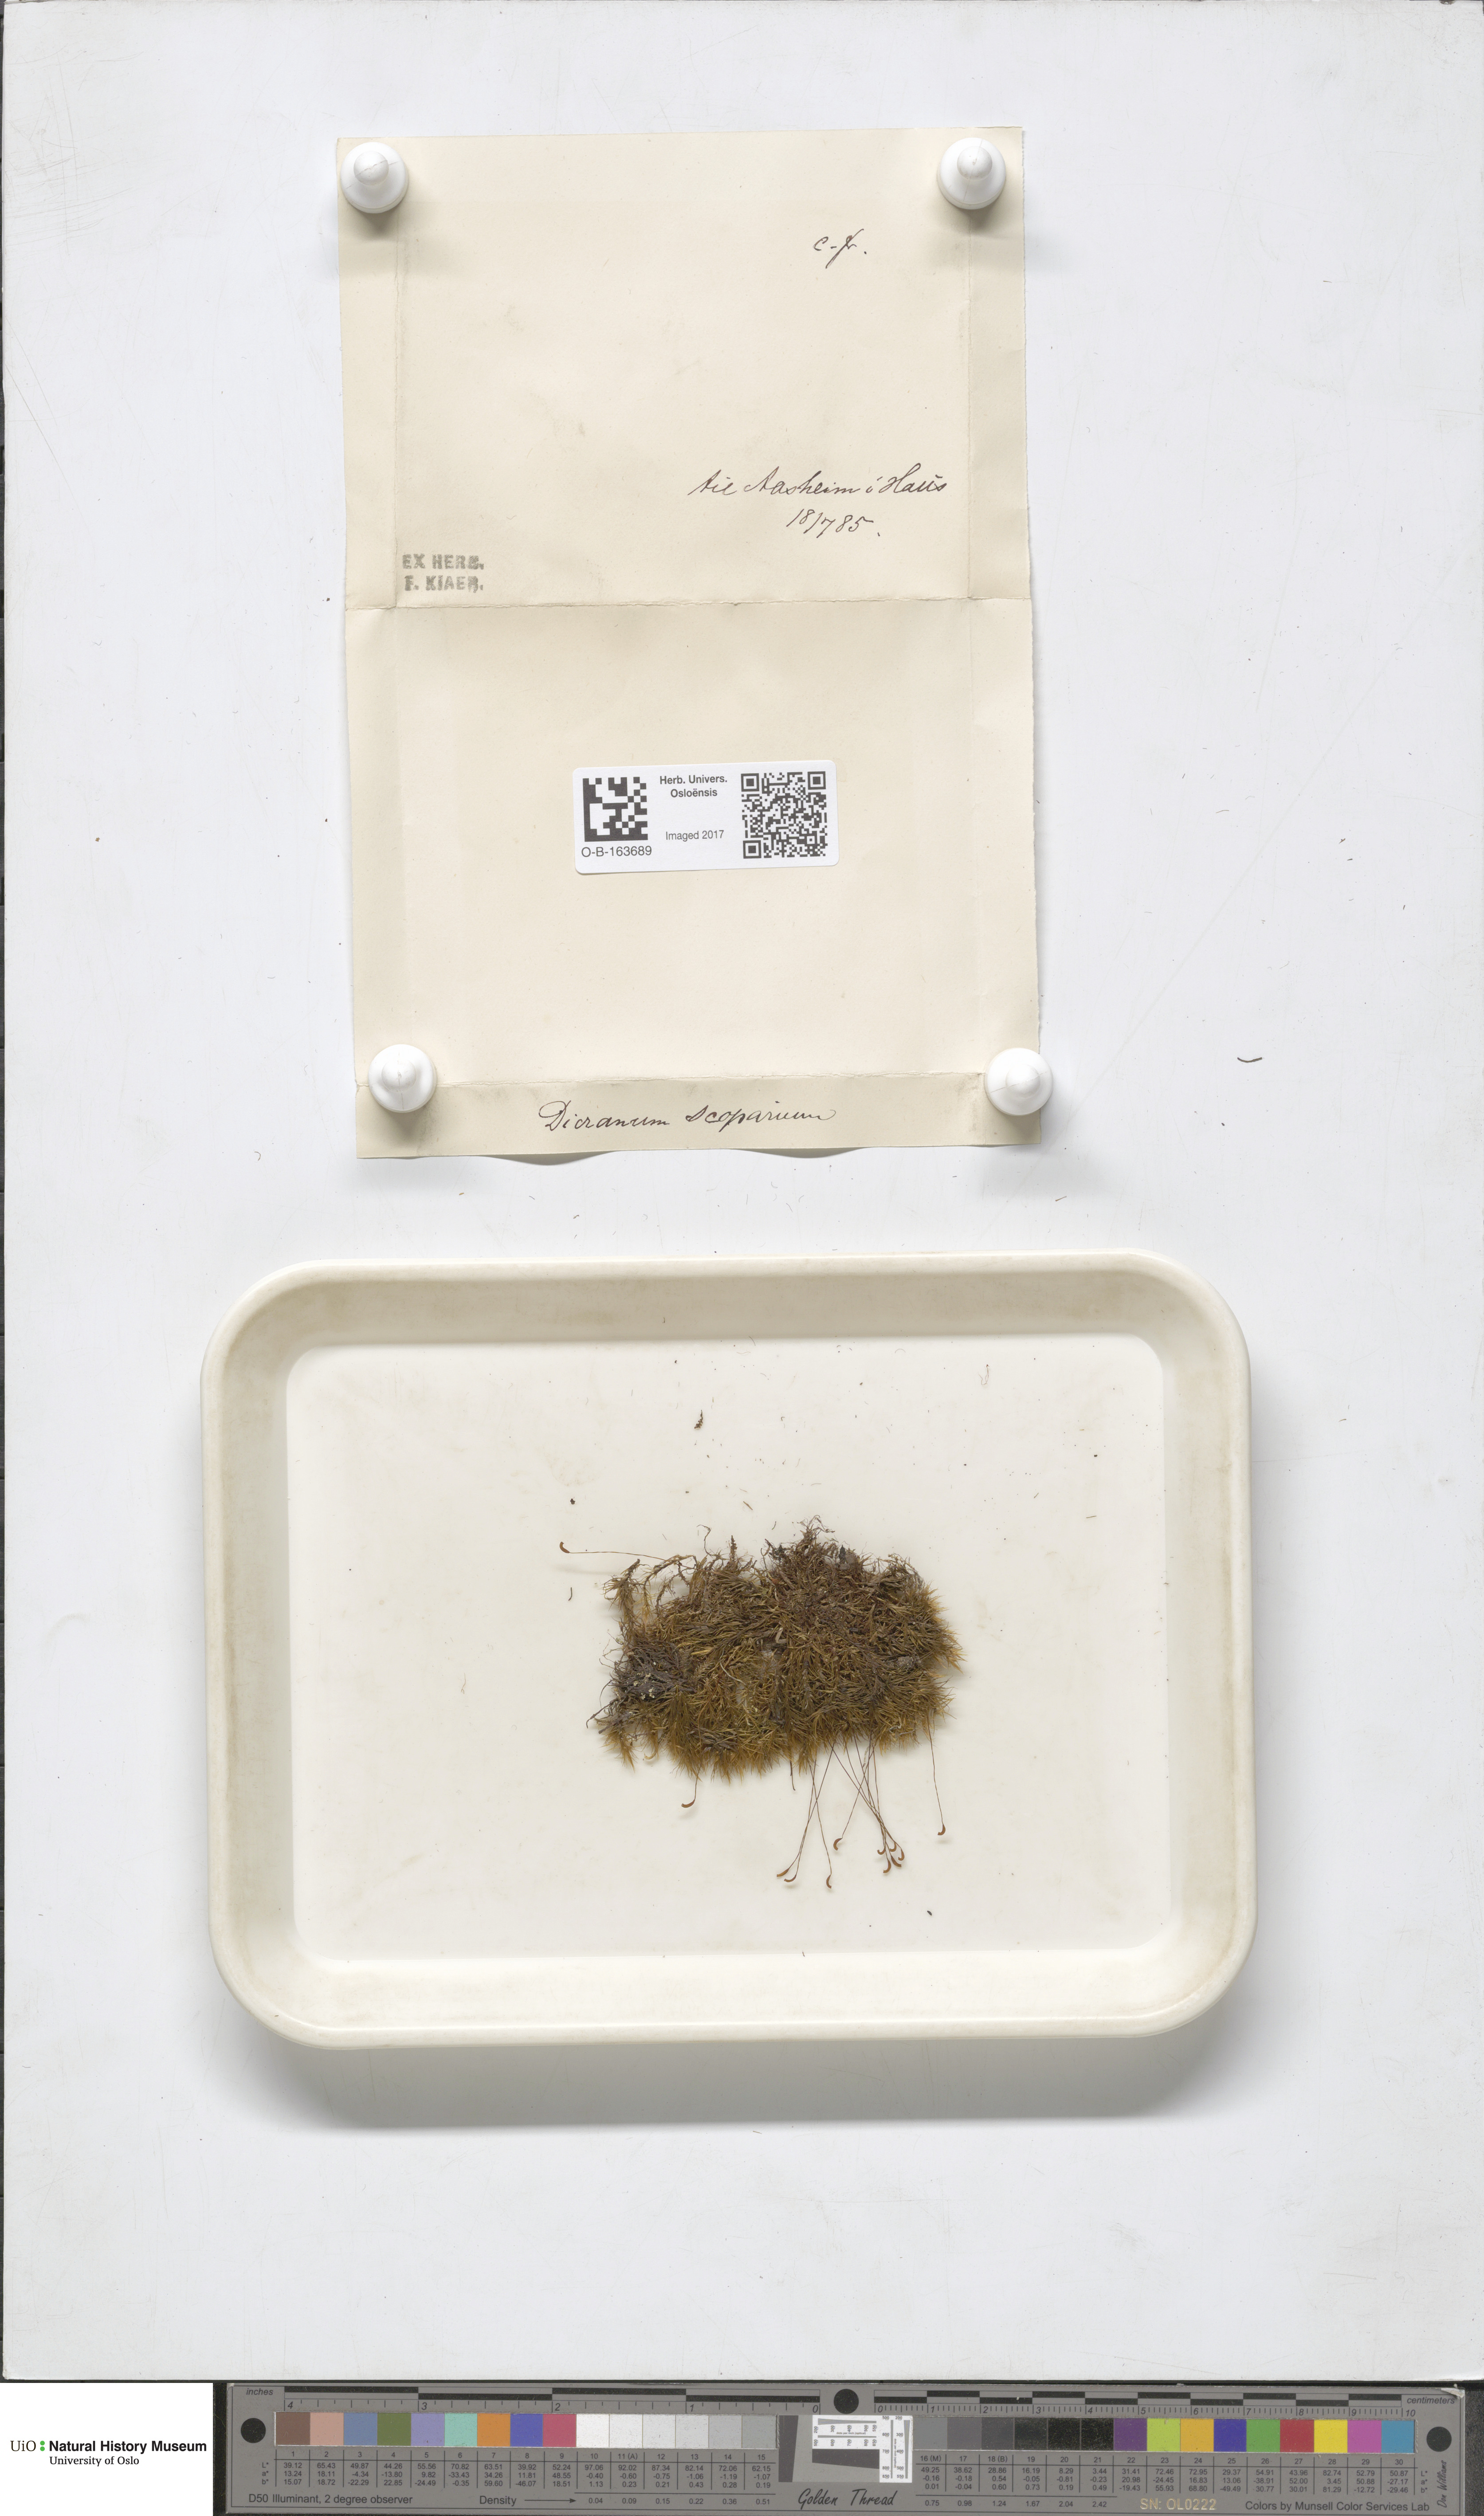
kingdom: Plantae
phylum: Bryophyta
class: Bryopsida
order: Dicranales
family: Dicranaceae
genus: Dicranum
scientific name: Dicranum scoparium
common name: Broom fork-moss
